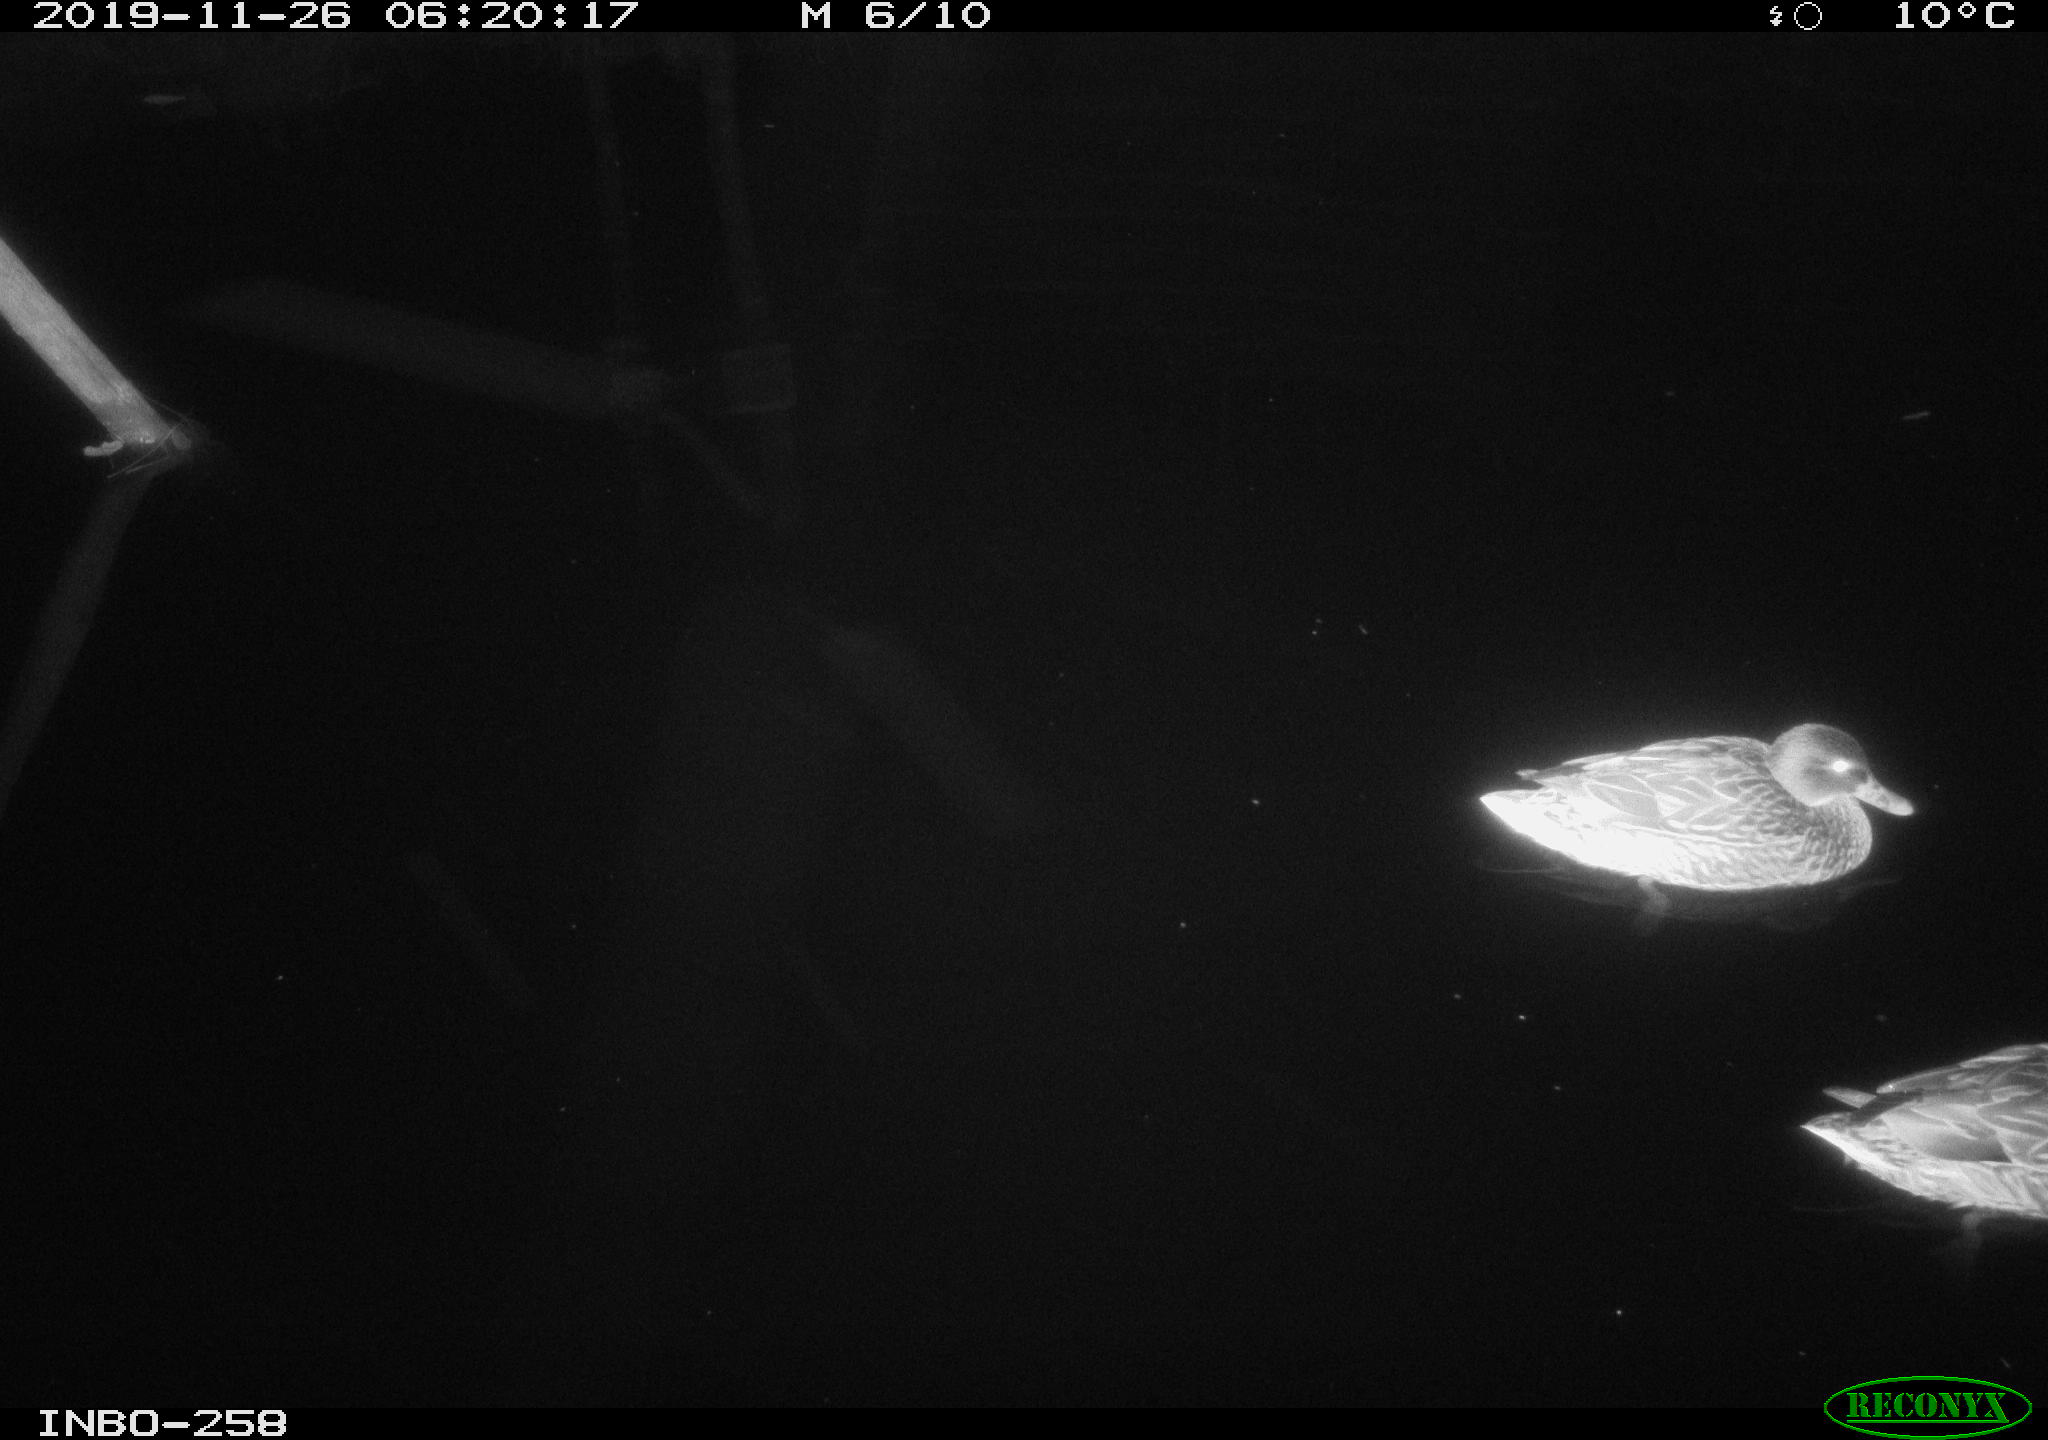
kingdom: Animalia
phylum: Chordata
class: Aves
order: Anseriformes
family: Anatidae
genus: Anas
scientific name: Anas platyrhynchos
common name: Mallard
